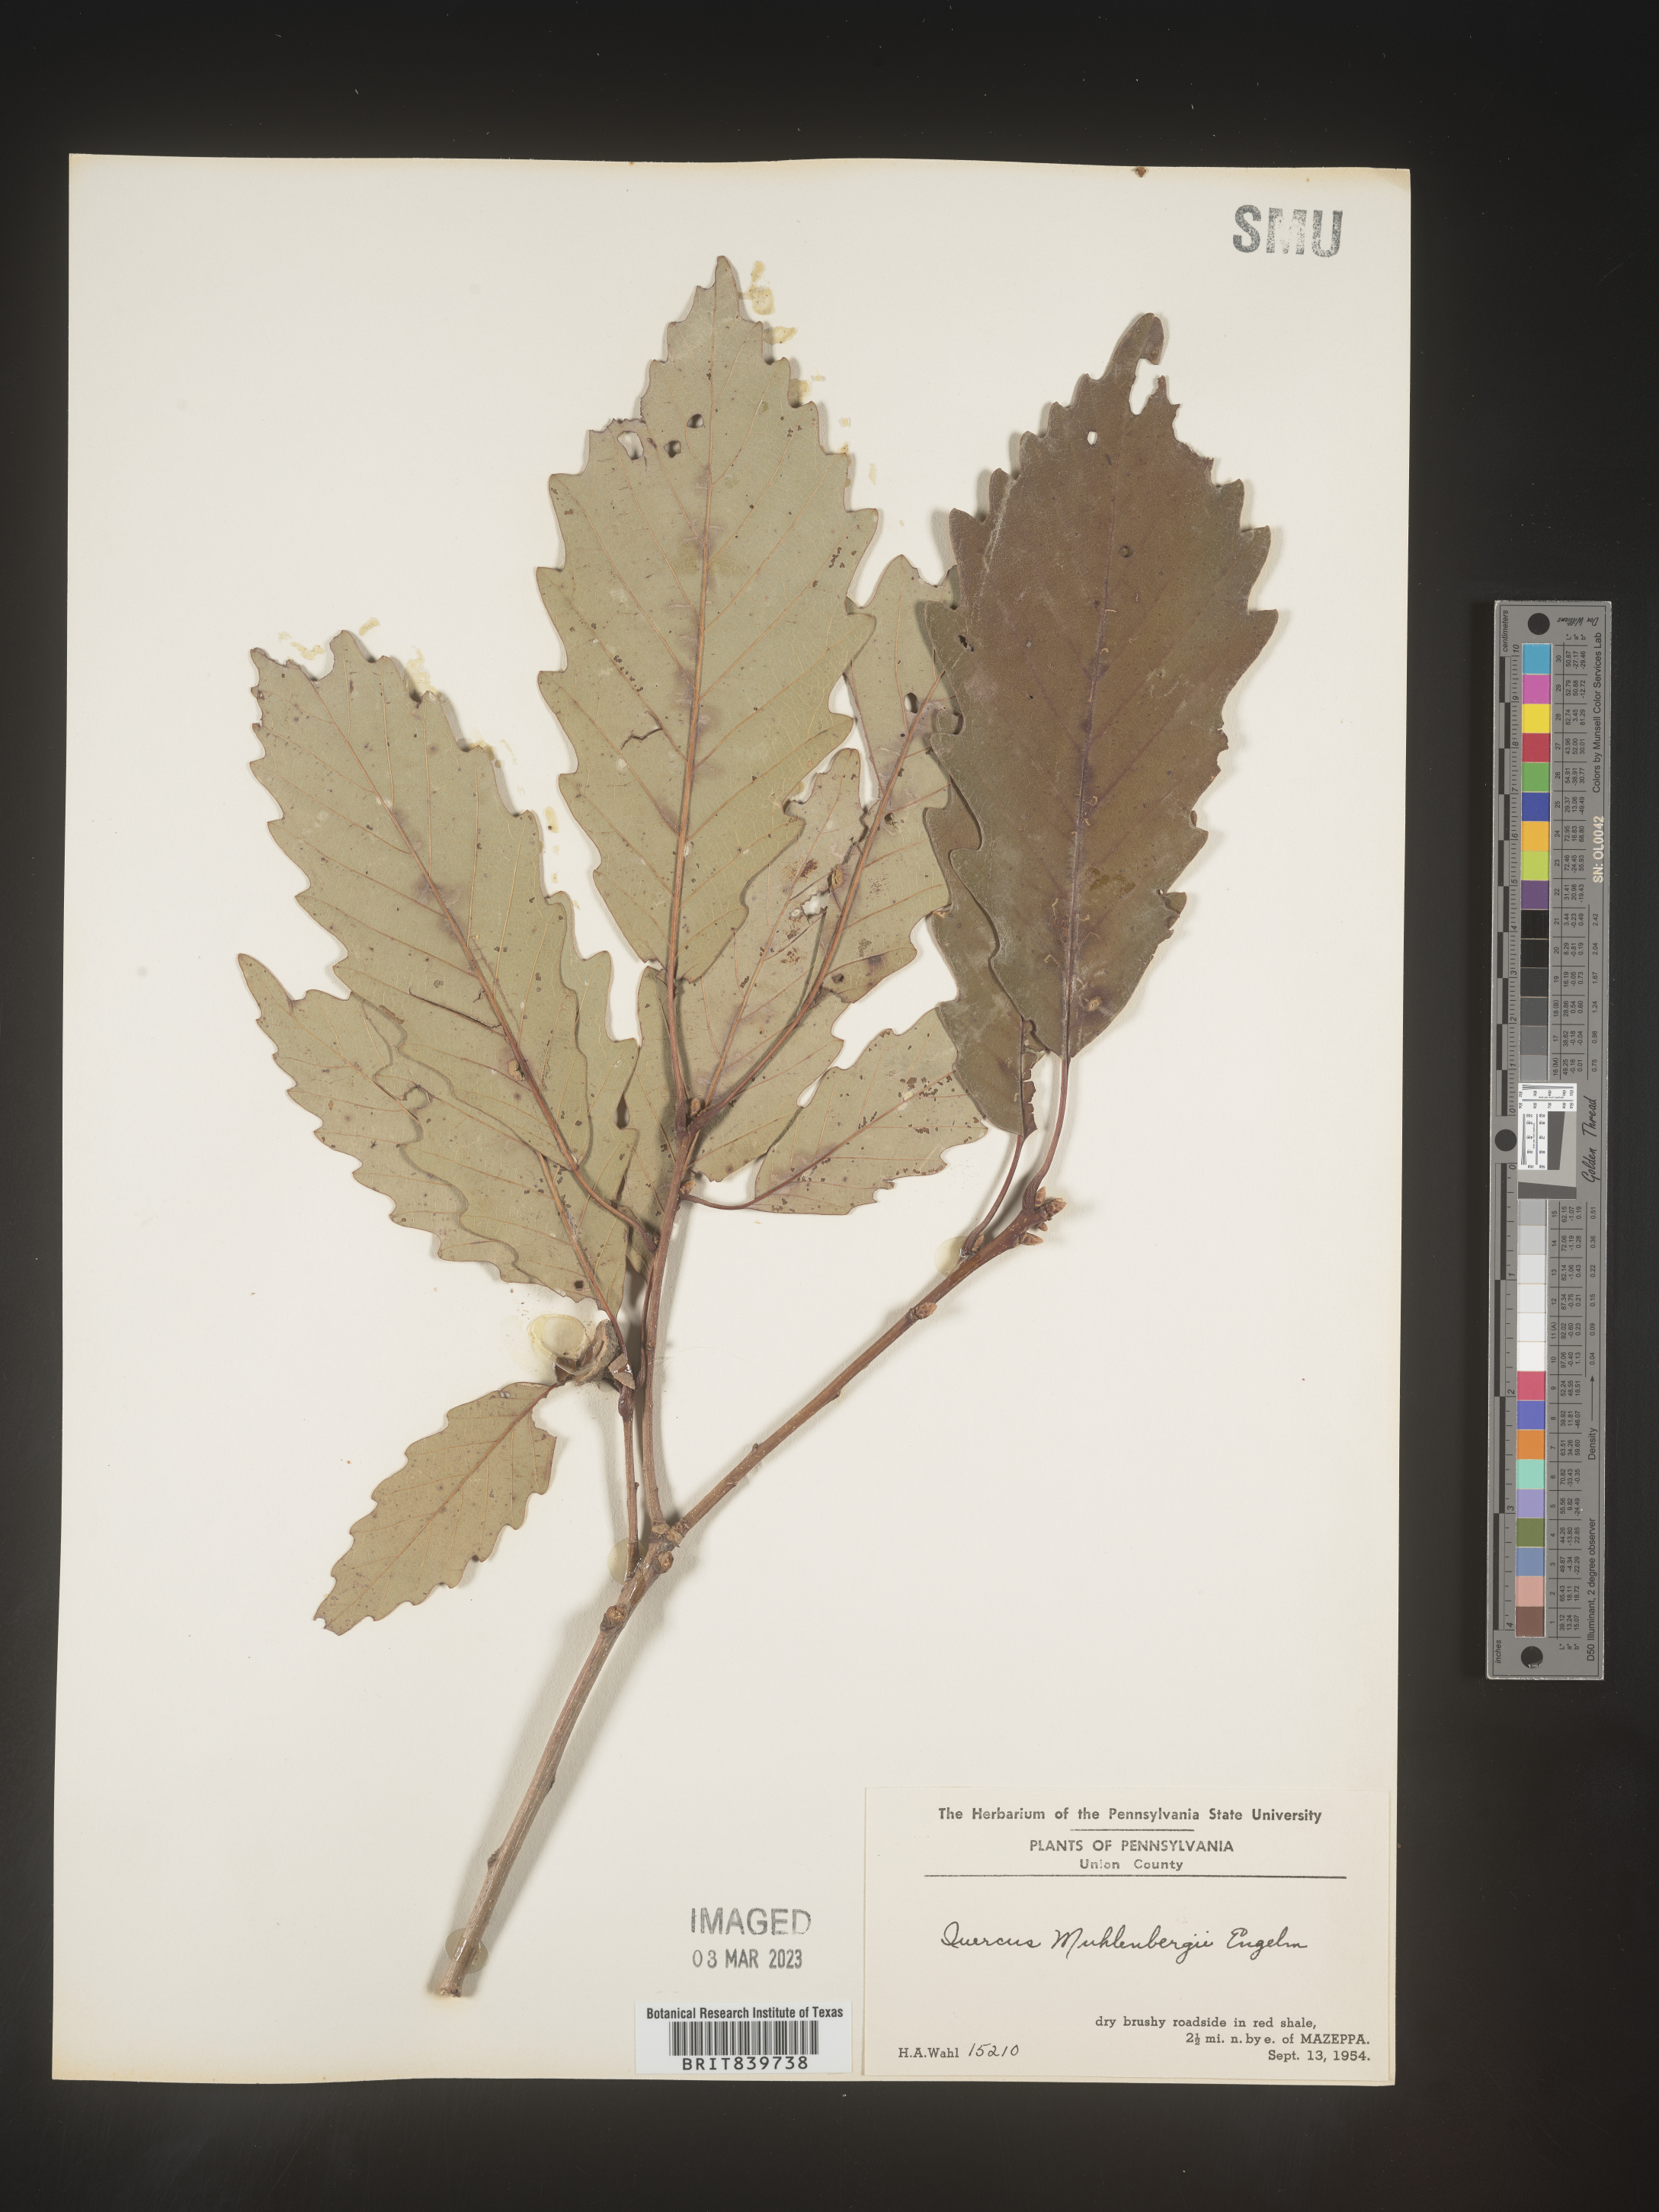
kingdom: Plantae
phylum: Tracheophyta
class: Magnoliopsida
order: Fagales
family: Fagaceae
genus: Quercus
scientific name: Quercus muehlenbergii
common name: Chinkapin oak
